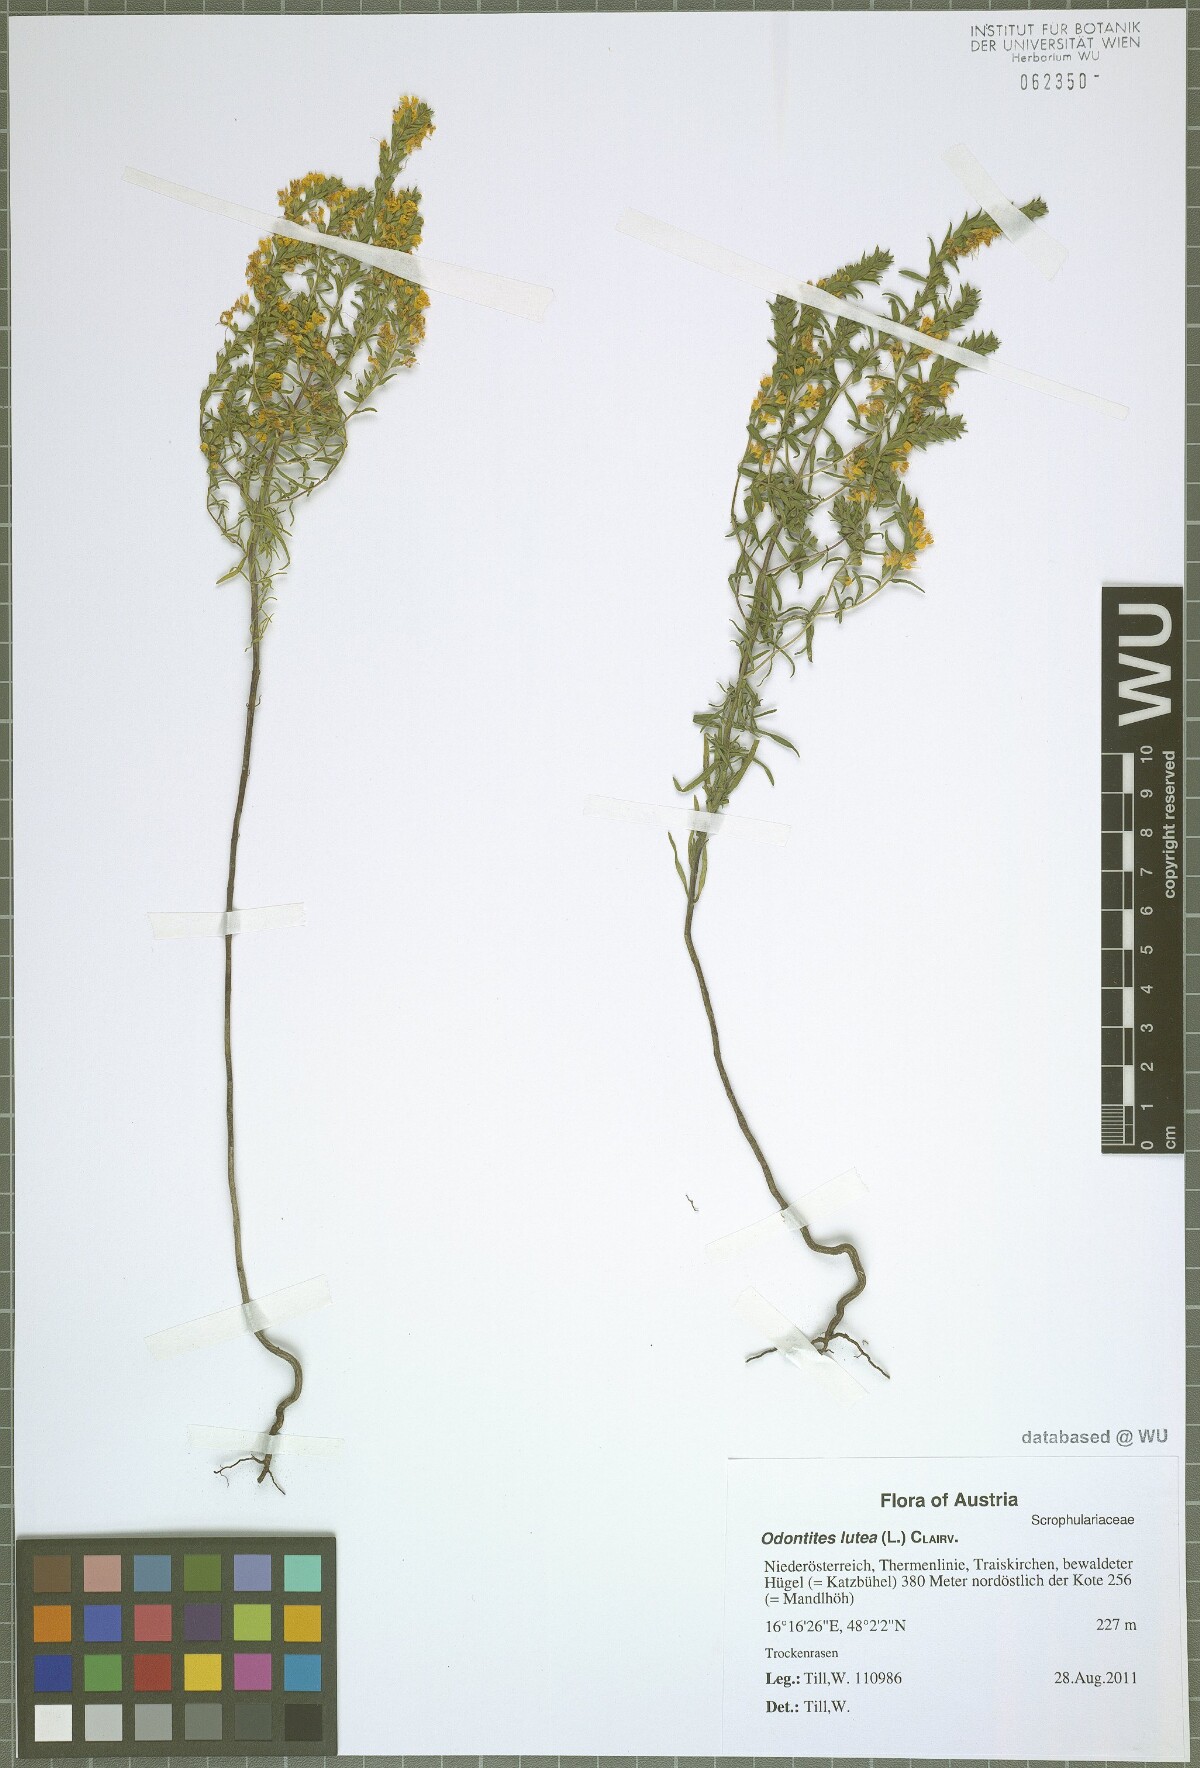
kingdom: Plantae
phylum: Tracheophyta
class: Magnoliopsida
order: Lamiales
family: Orobanchaceae
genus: Odontites
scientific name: Odontites luteus
